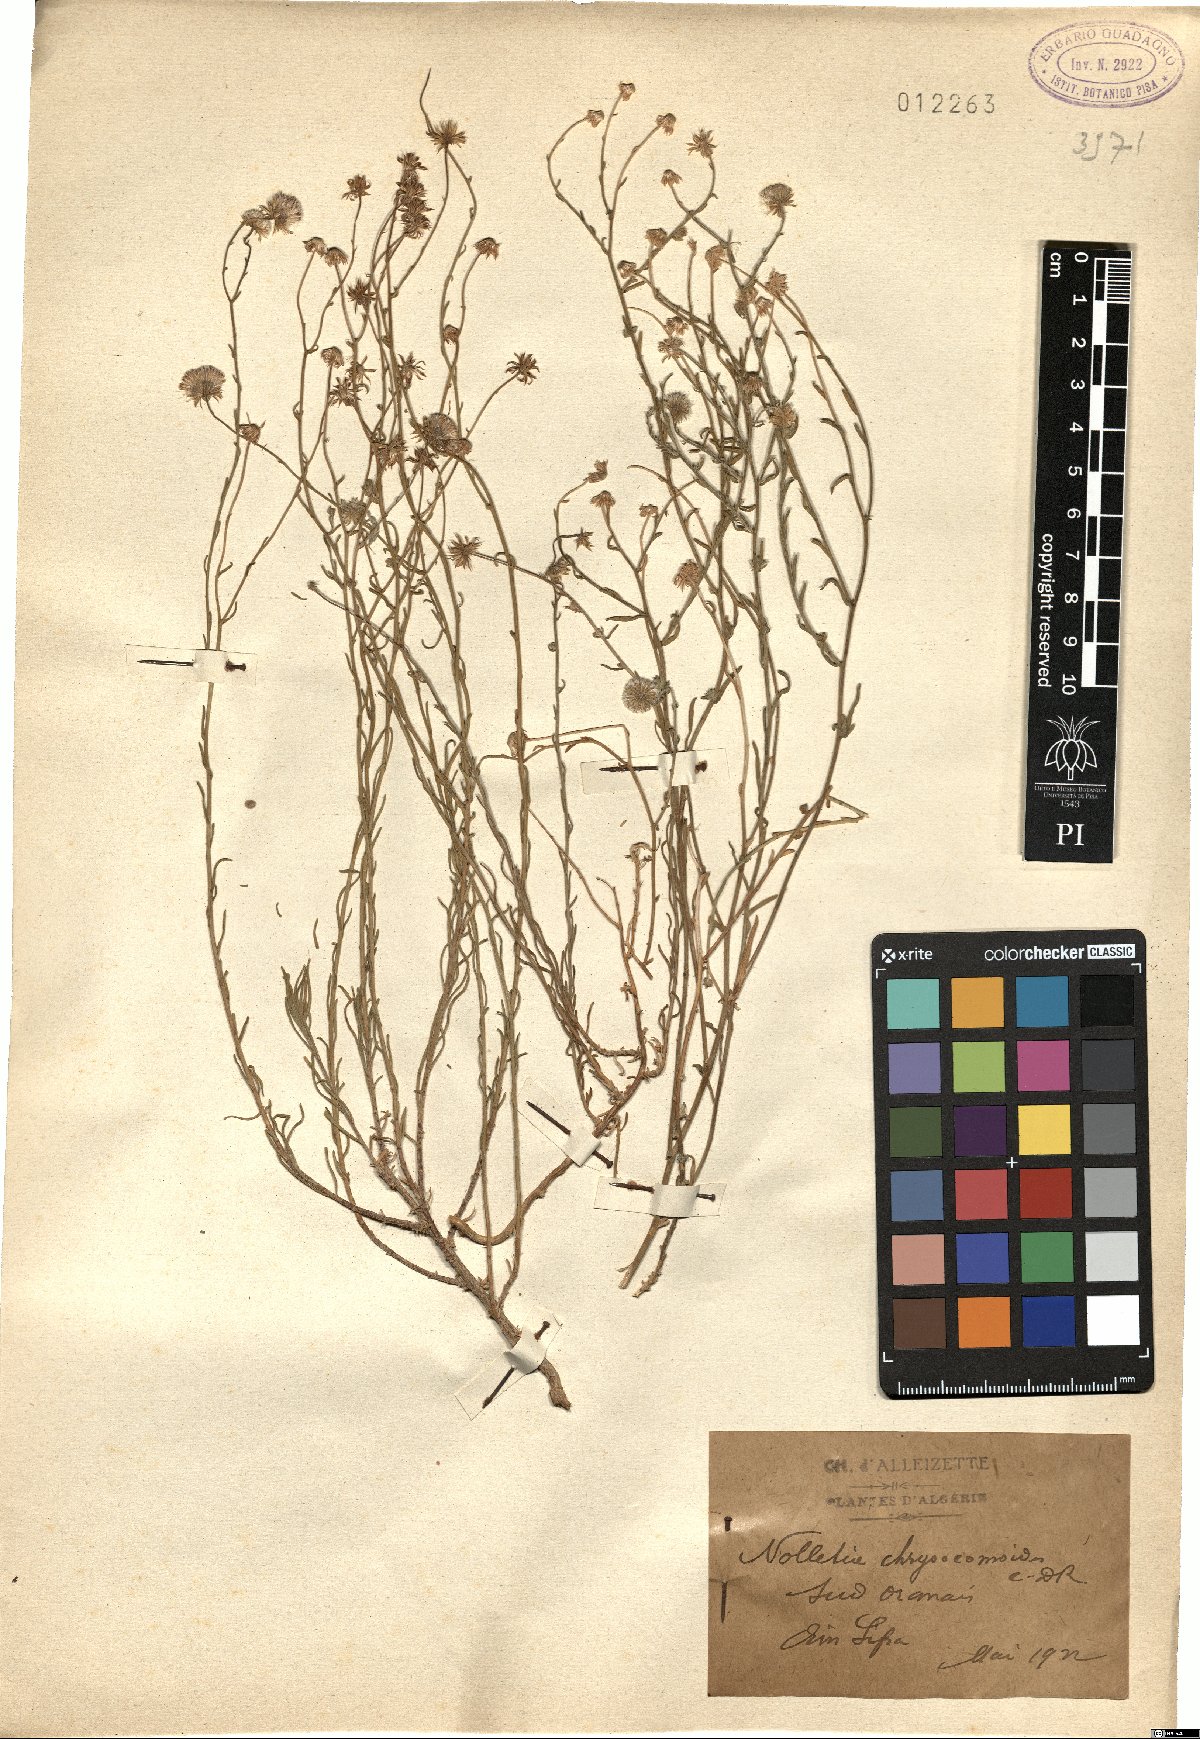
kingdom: Plantae
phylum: Tracheophyta
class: Magnoliopsida
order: Asterales
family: Asteraceae
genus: Nolletia
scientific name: Nolletia chrysocomoides
